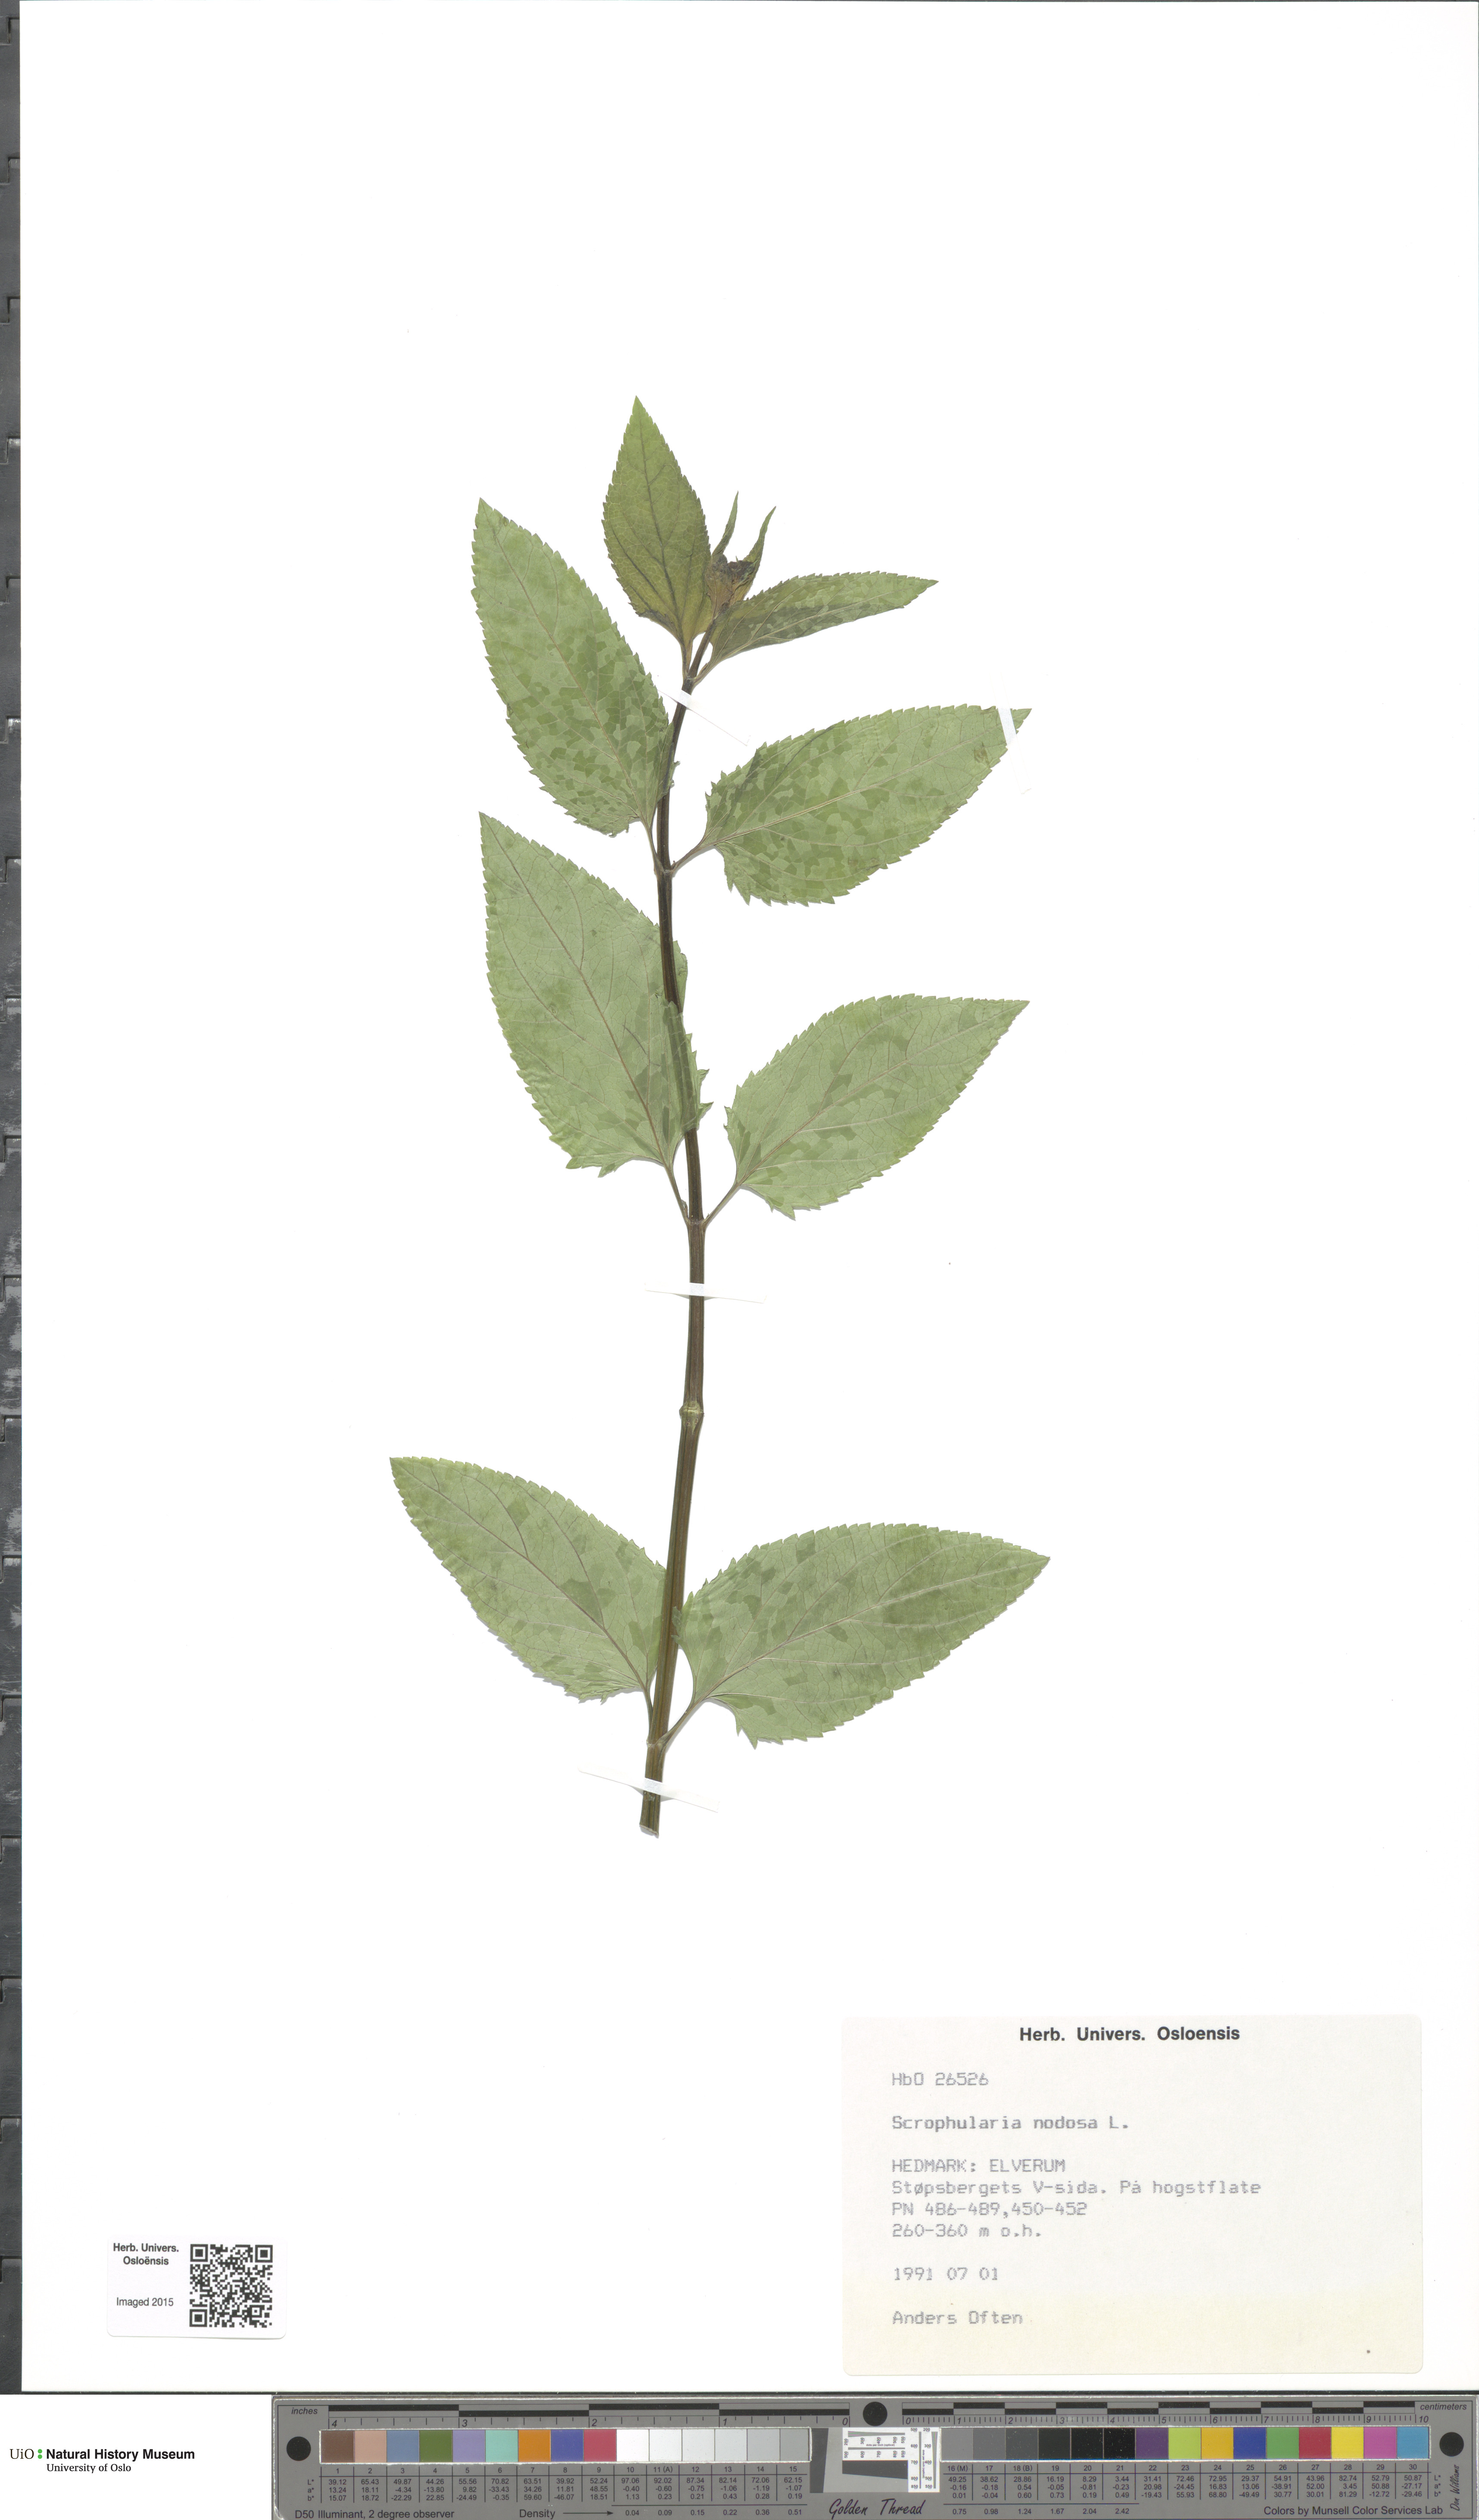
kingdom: Plantae
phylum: Tracheophyta
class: Magnoliopsida
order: Lamiales
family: Scrophulariaceae
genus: Scrophularia
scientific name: Scrophularia nodosa
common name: Common figwort
